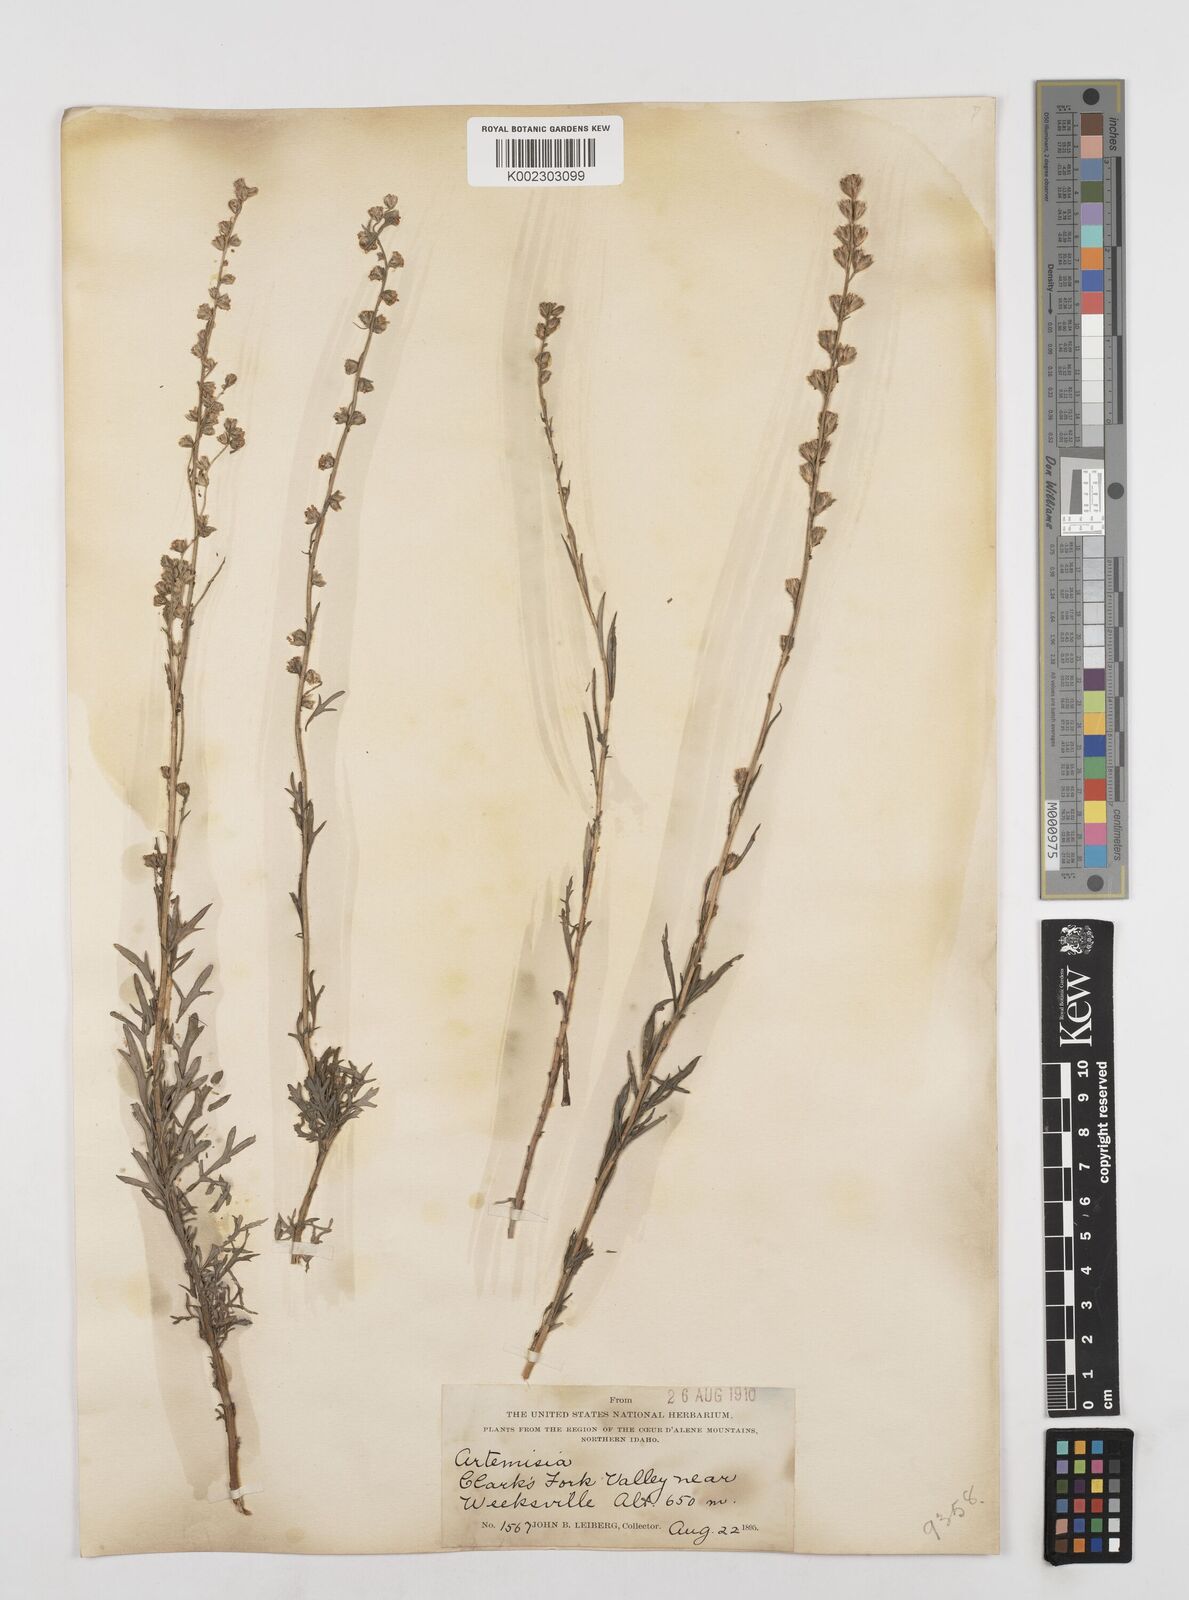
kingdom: Plantae
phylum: Tracheophyta
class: Magnoliopsida
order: Asterales
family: Asteraceae
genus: Artemisia
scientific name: Artemisia ludoviciana
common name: Western mugwort
